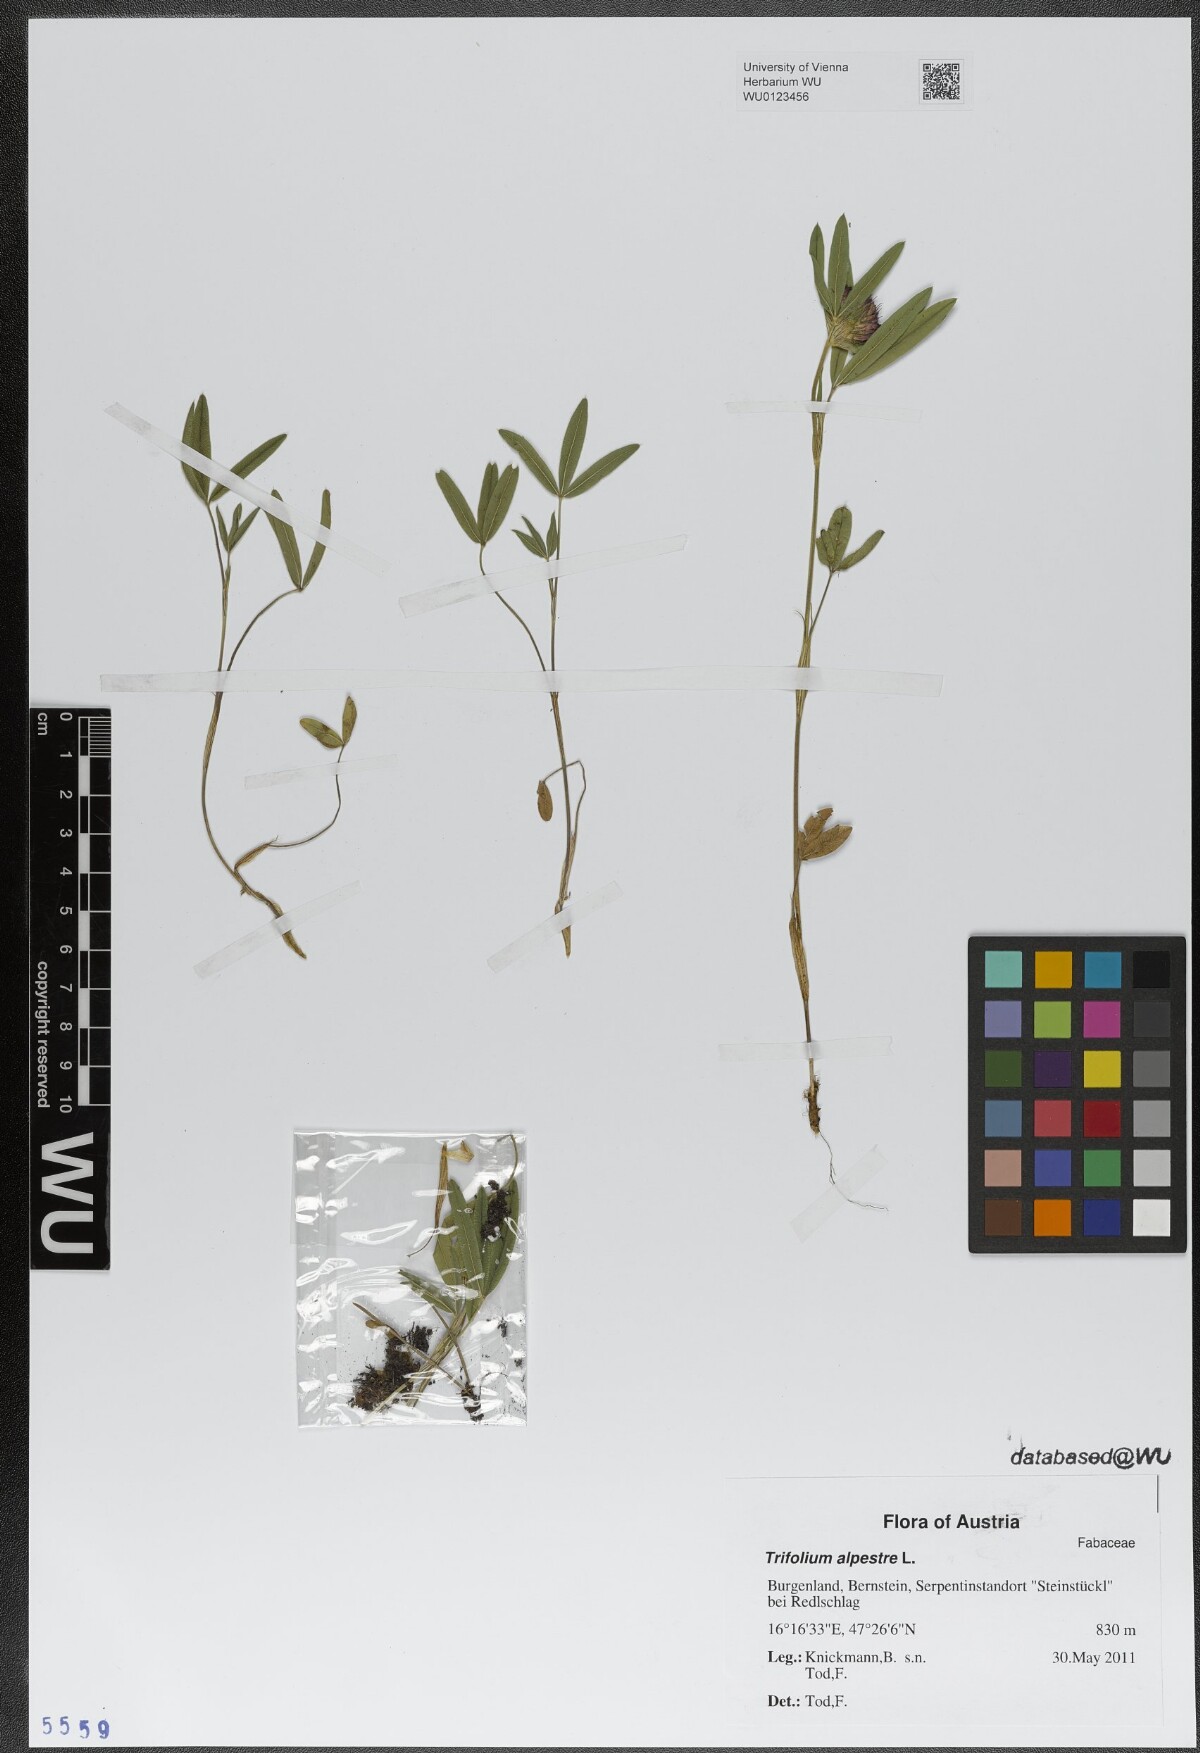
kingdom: Plantae
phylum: Tracheophyta
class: Magnoliopsida
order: Fabales
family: Fabaceae
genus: Trifolium
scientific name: Trifolium alpestre
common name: Owl-head clover
